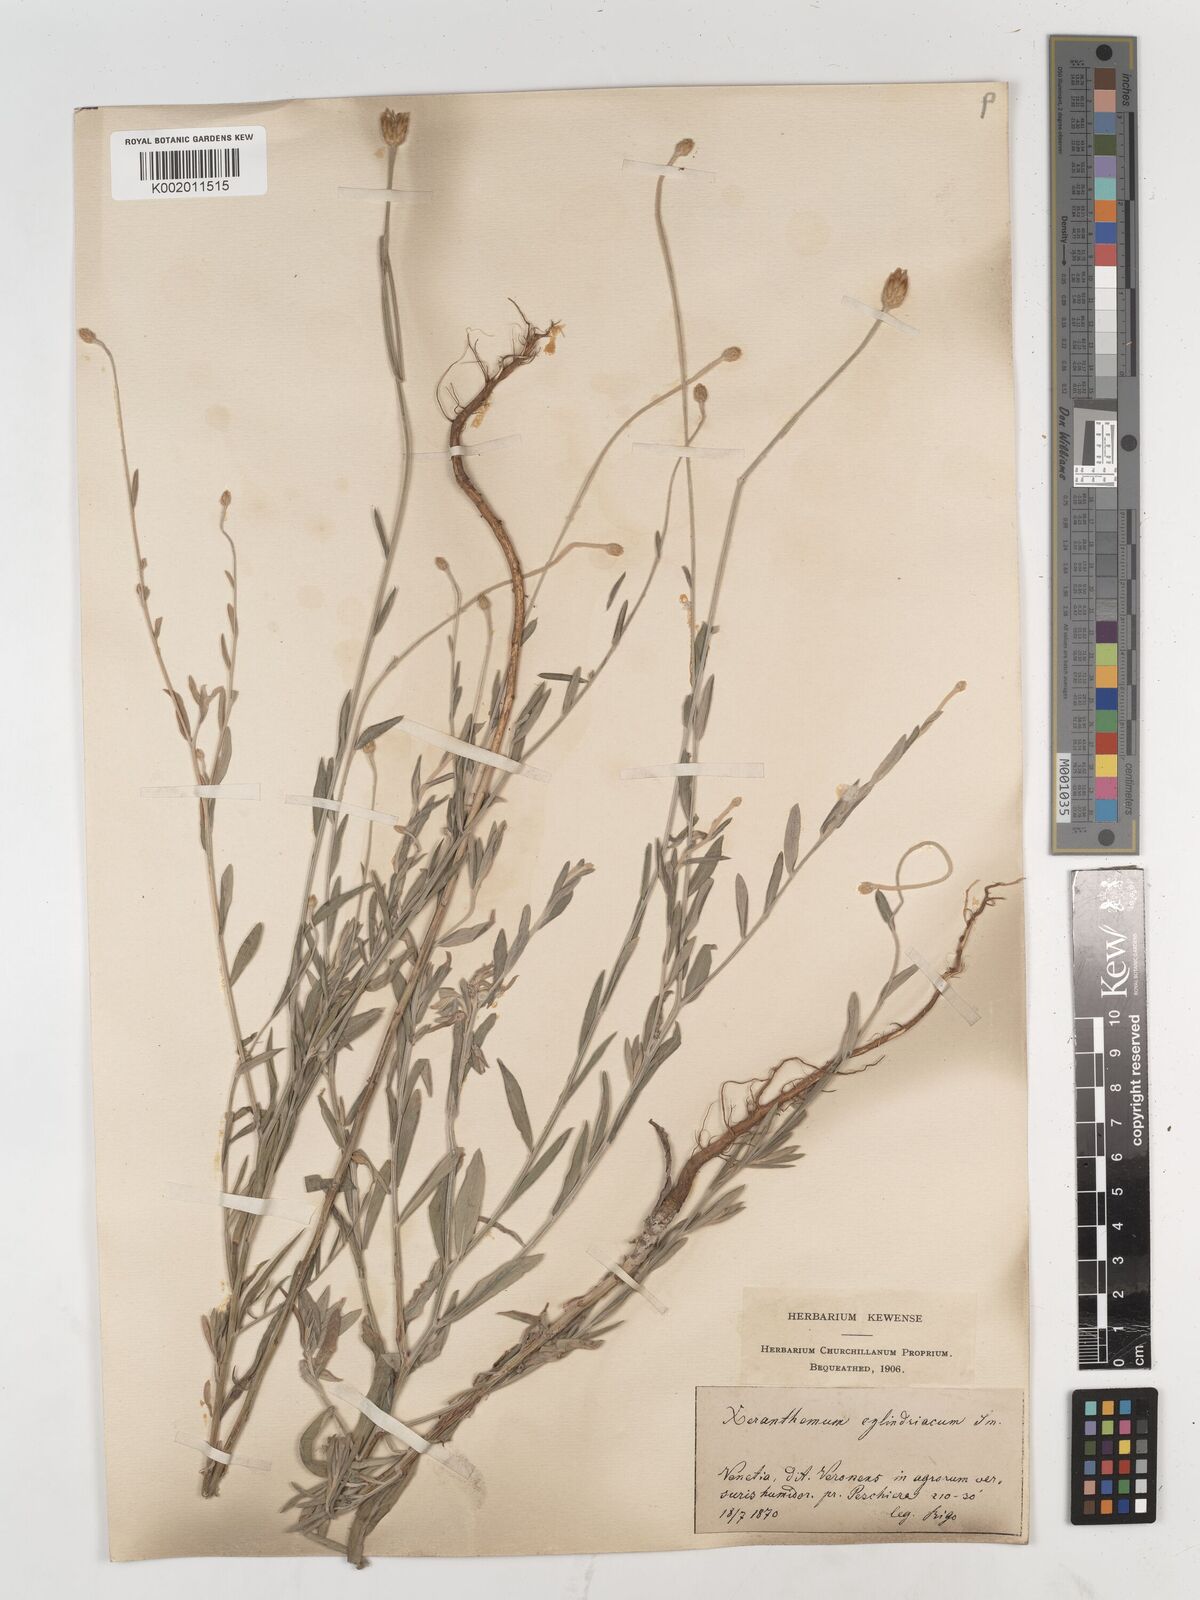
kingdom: Plantae
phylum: Tracheophyta
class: Magnoliopsida
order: Asterales
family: Asteraceae
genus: Xeranthemum
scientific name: Xeranthemum cylindraceum
